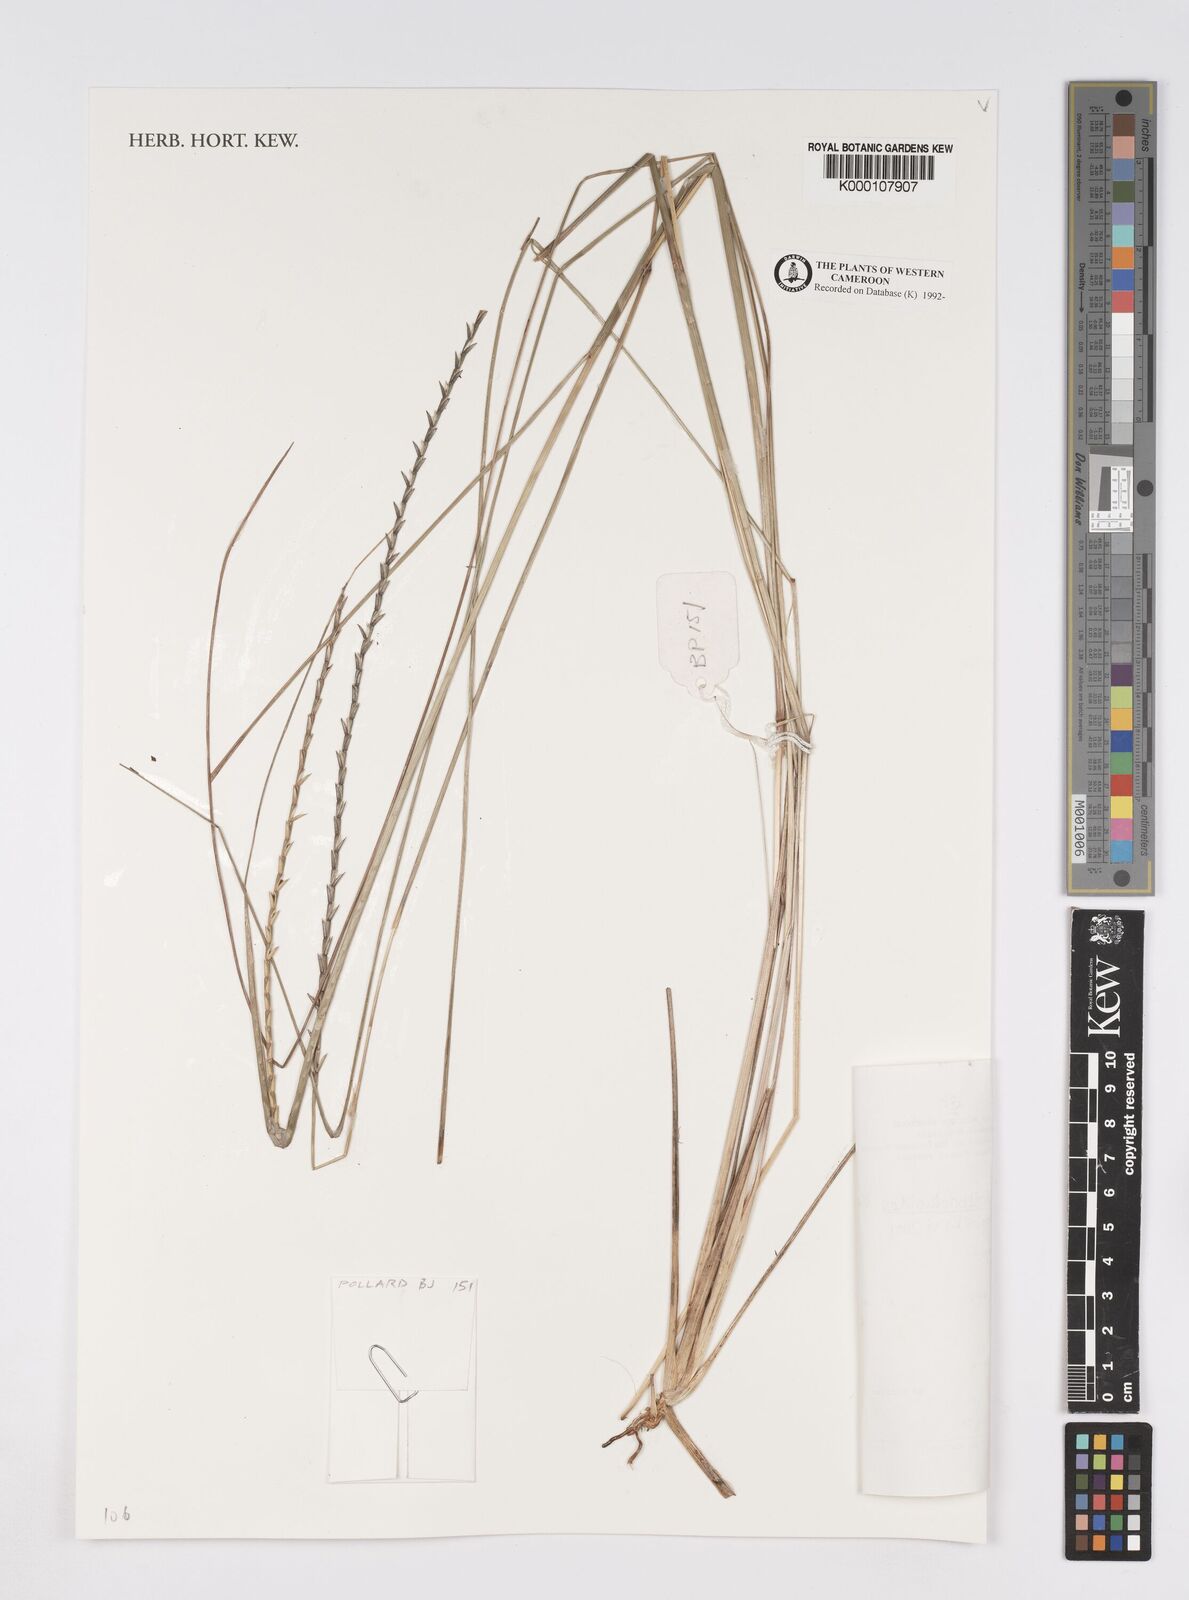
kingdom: Plantae
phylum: Tracheophyta
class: Liliopsida
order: Poales
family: Poaceae
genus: Rhytachne
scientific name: Rhytachne rottboellioides
